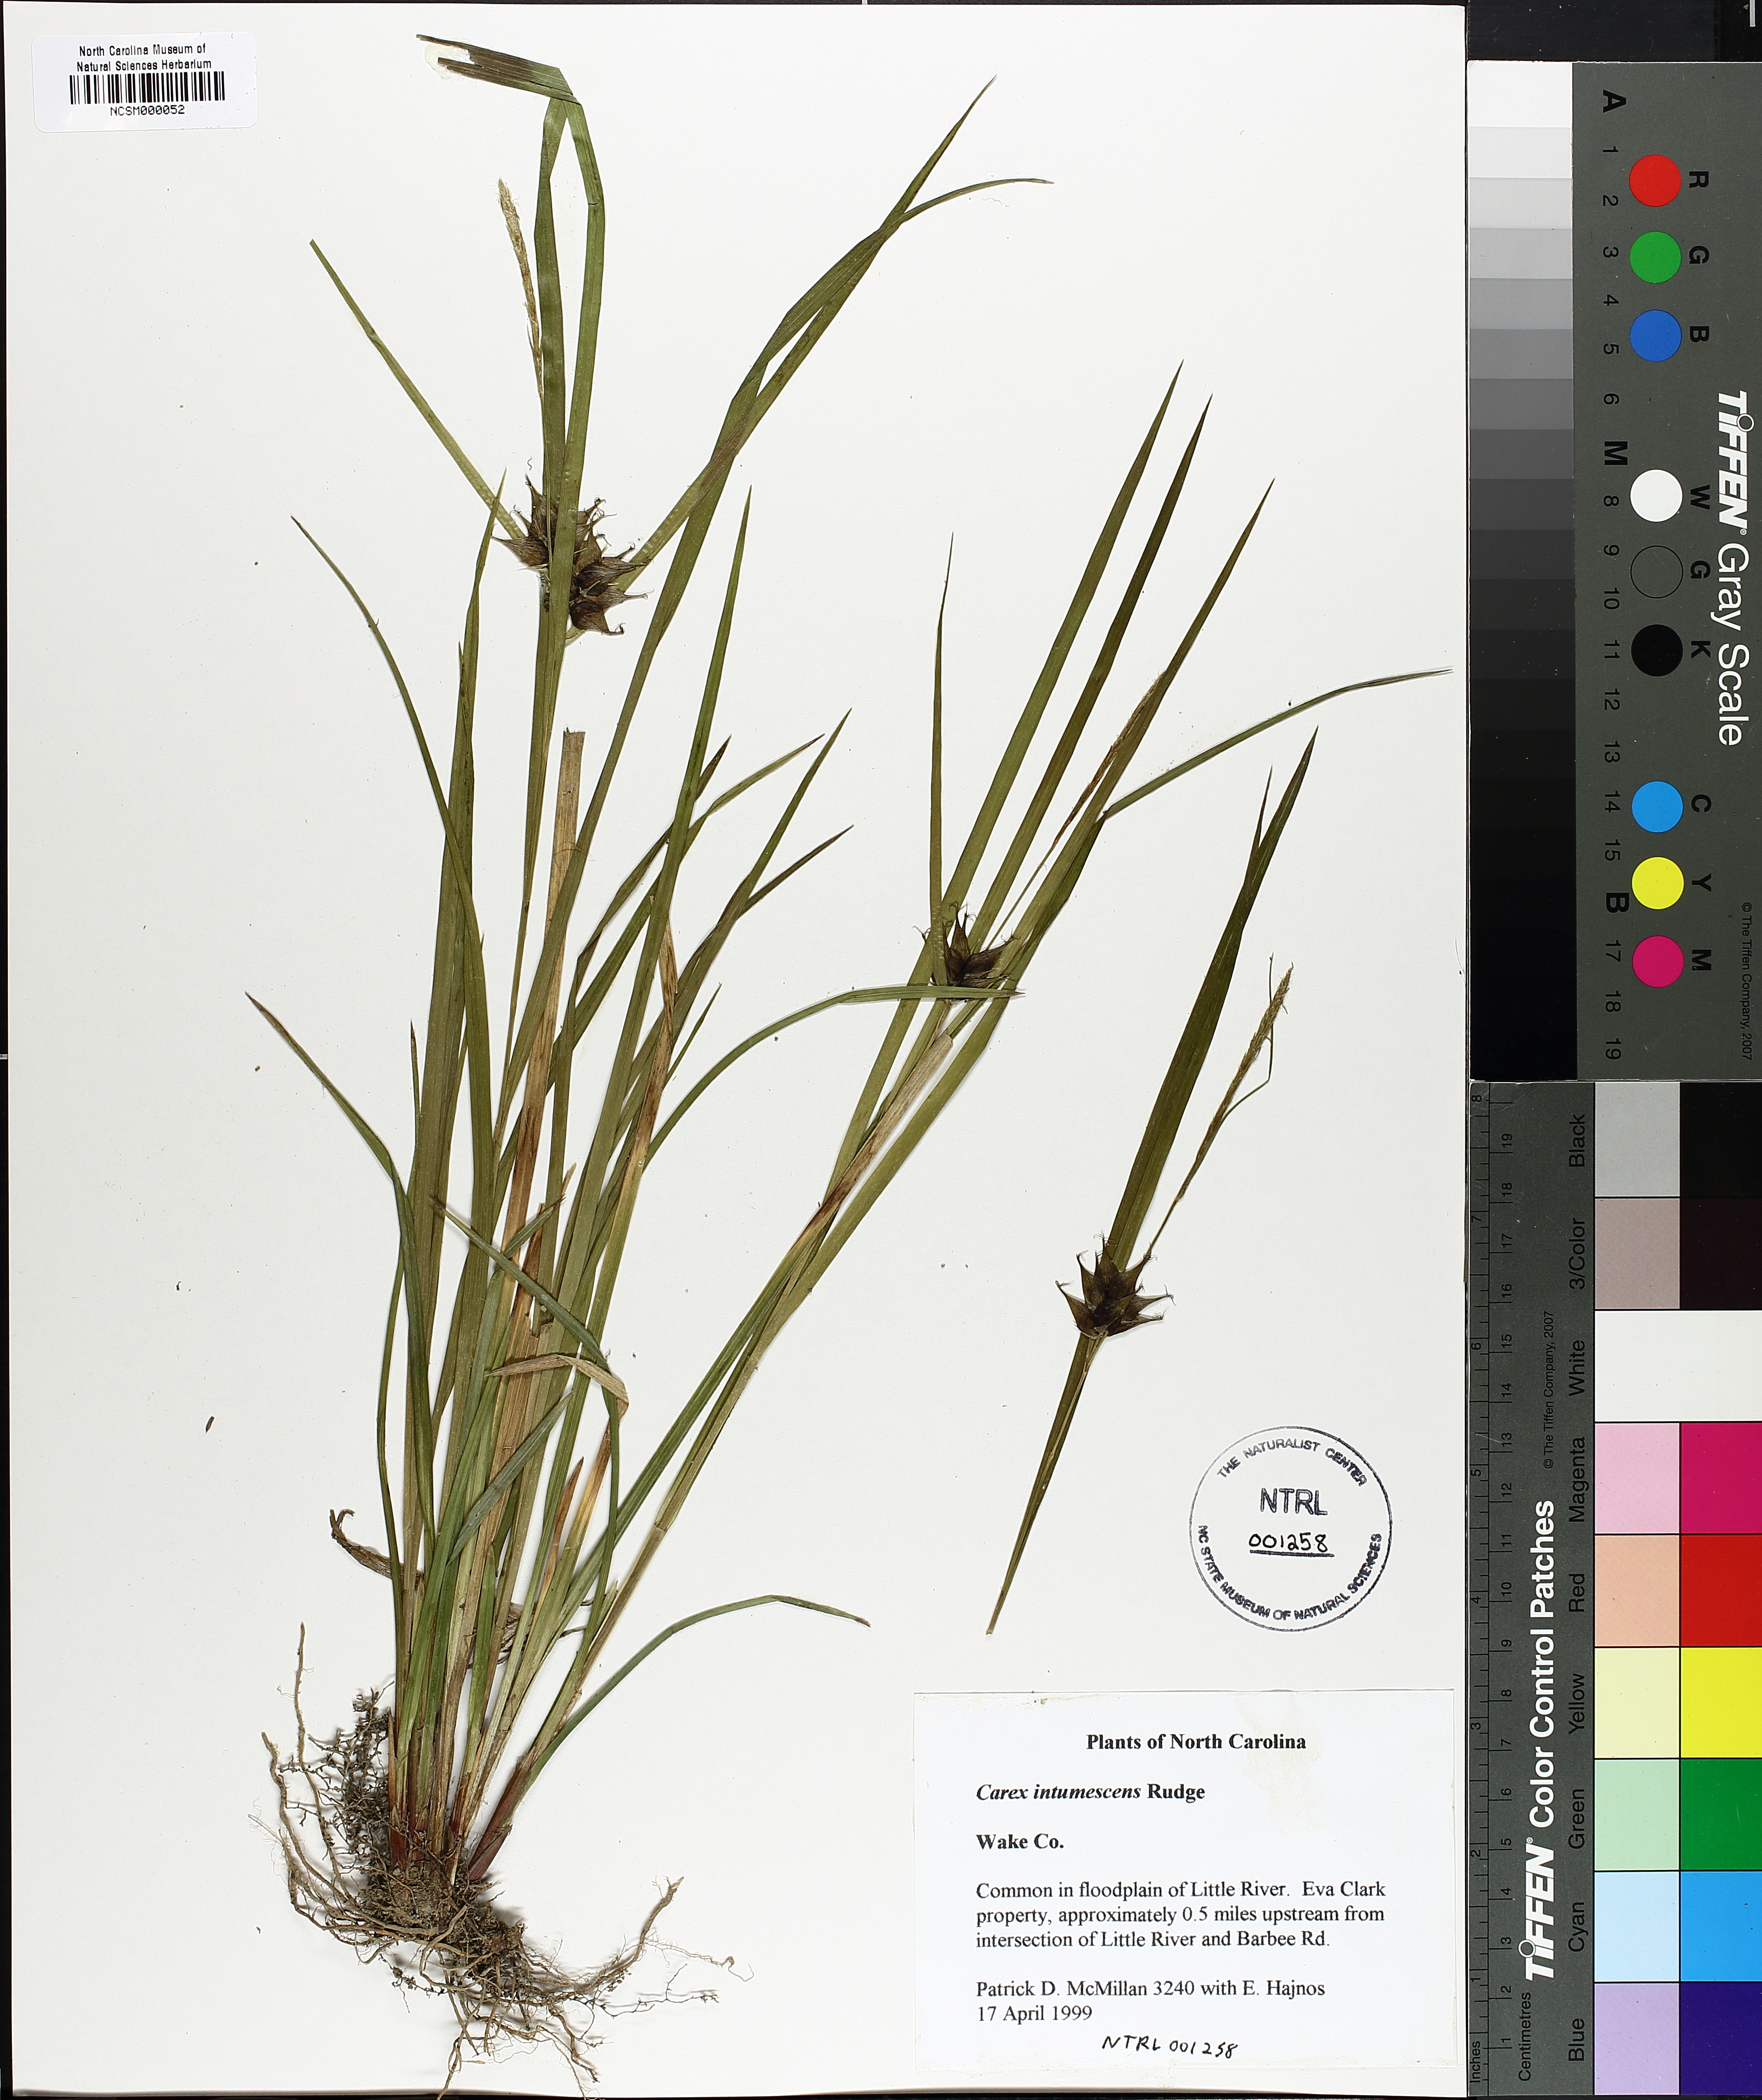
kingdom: Plantae
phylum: Tracheophyta
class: Liliopsida
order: Poales
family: Cyperaceae
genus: Carex
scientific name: Carex intumescens
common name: Greater bladder sedge
